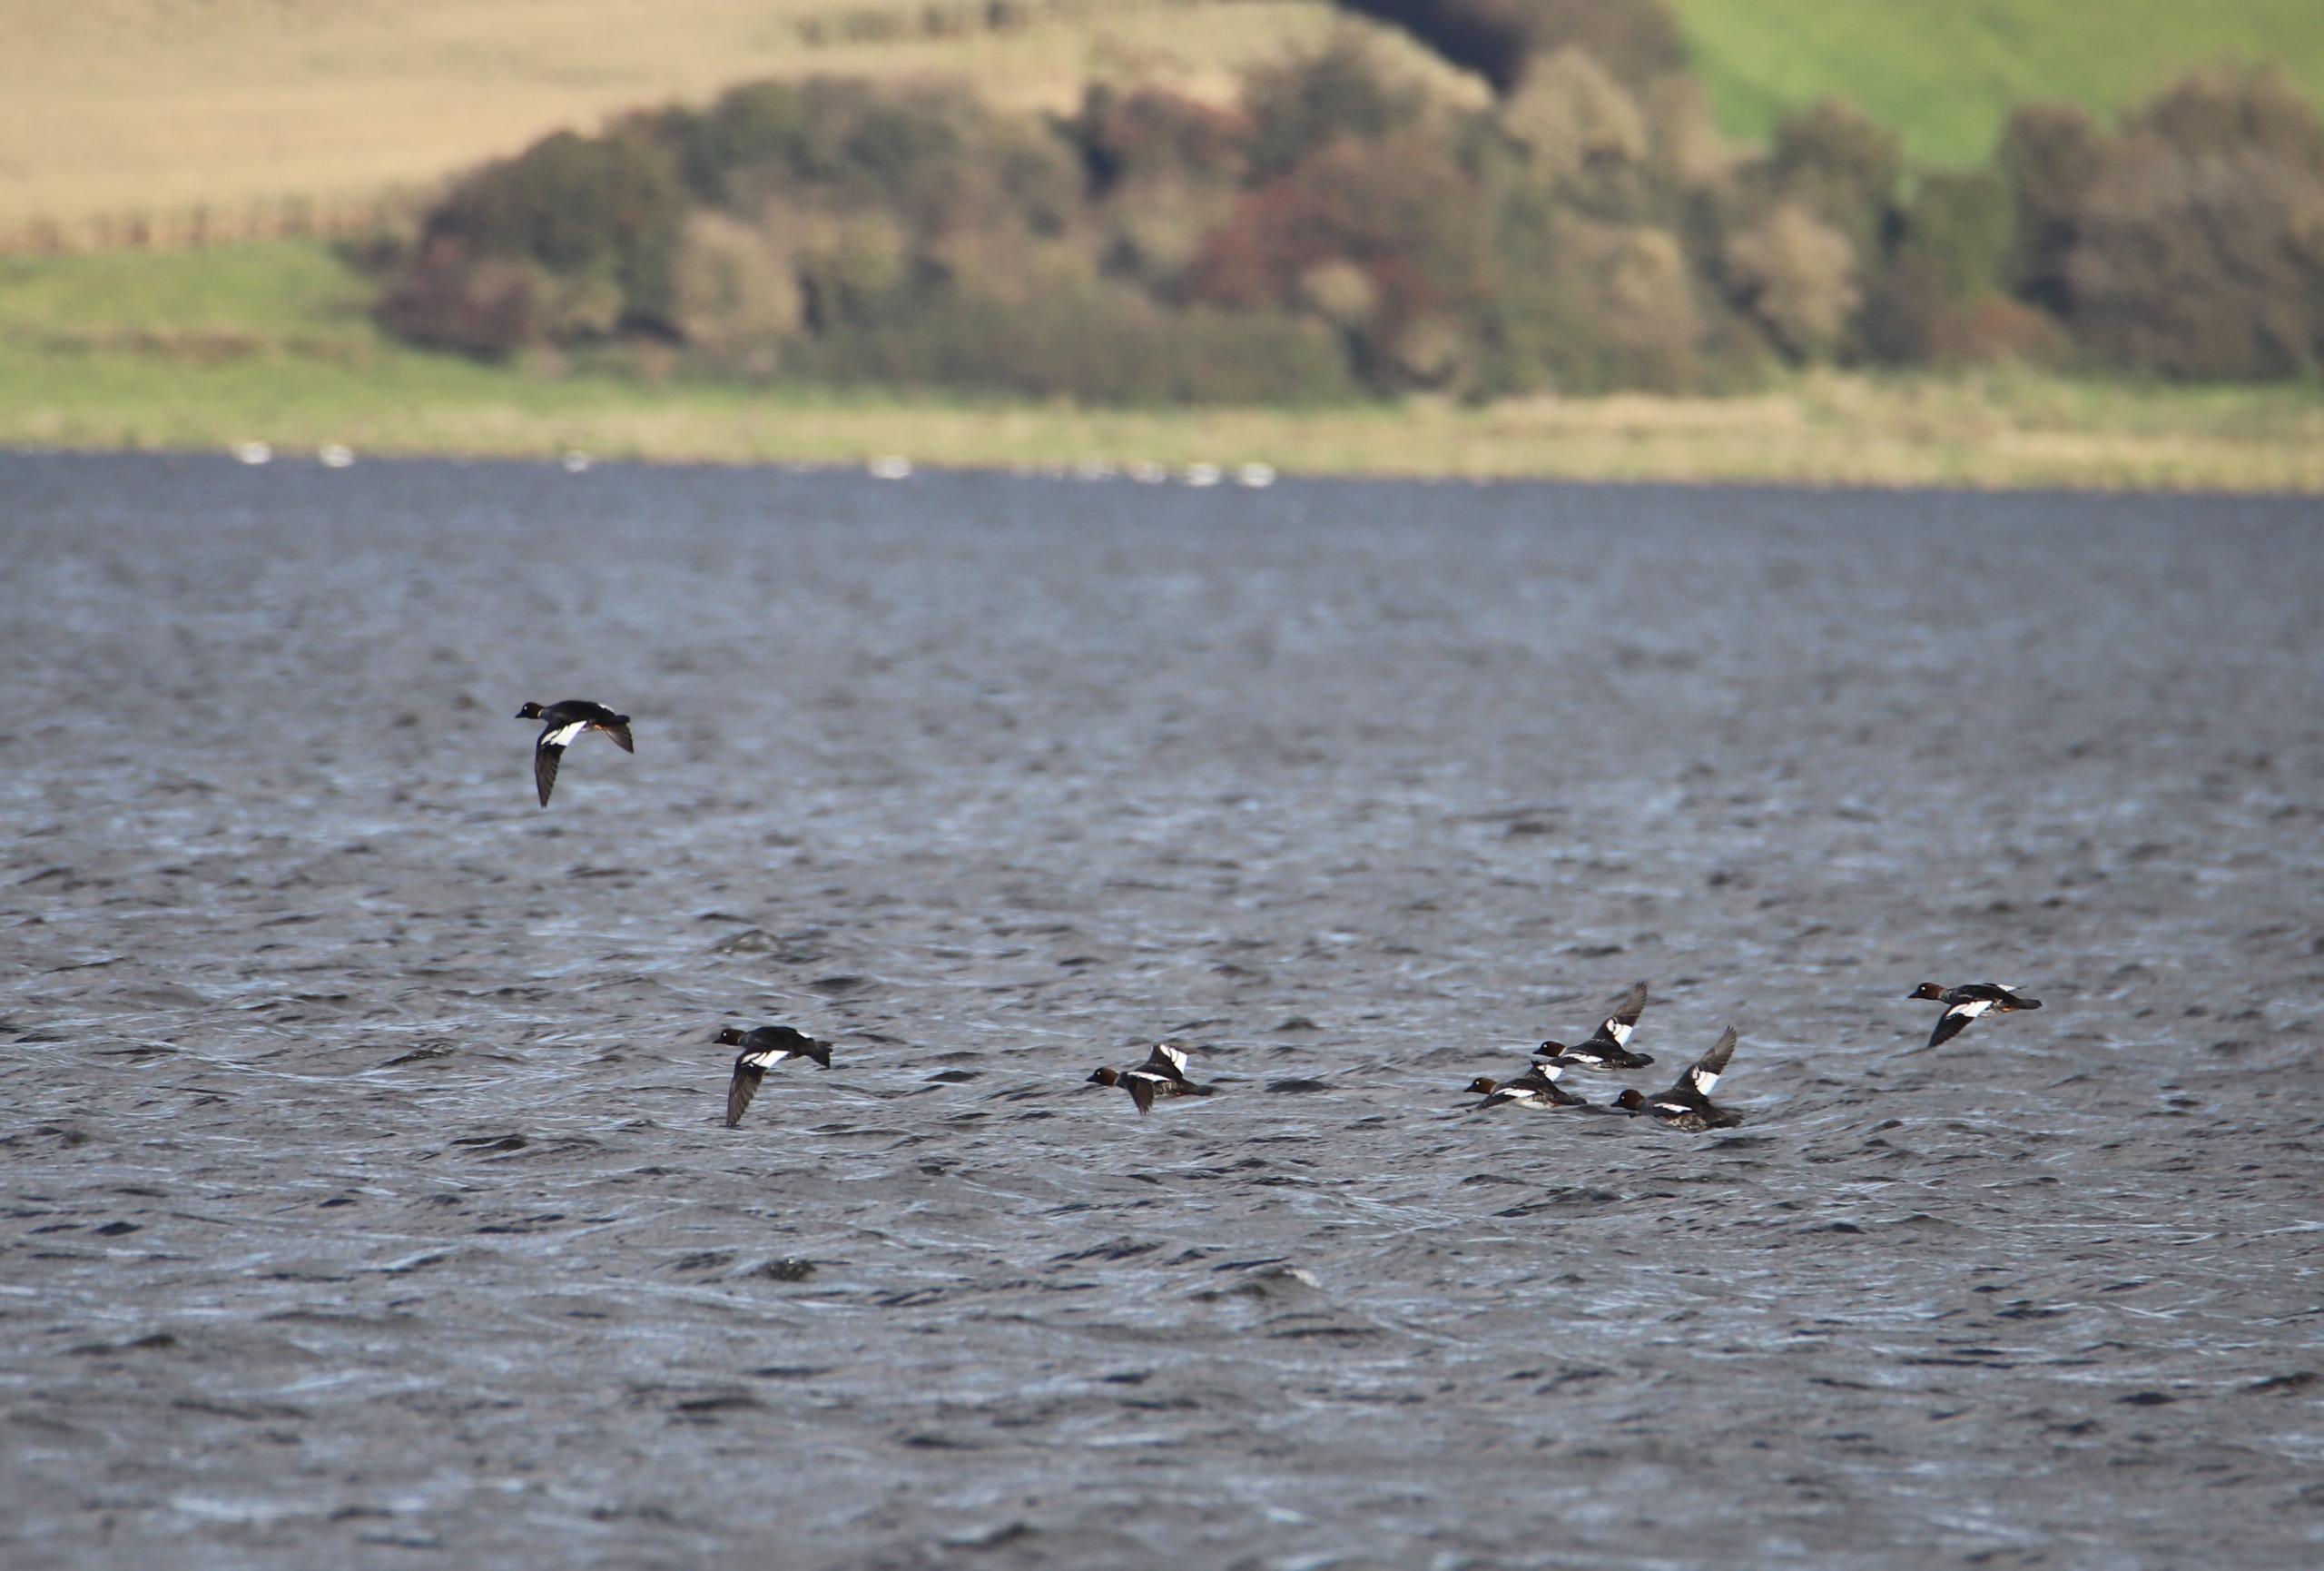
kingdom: Animalia
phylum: Chordata
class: Aves
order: Anseriformes
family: Anatidae
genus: Bucephala
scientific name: Bucephala clangula
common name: Hvinand
